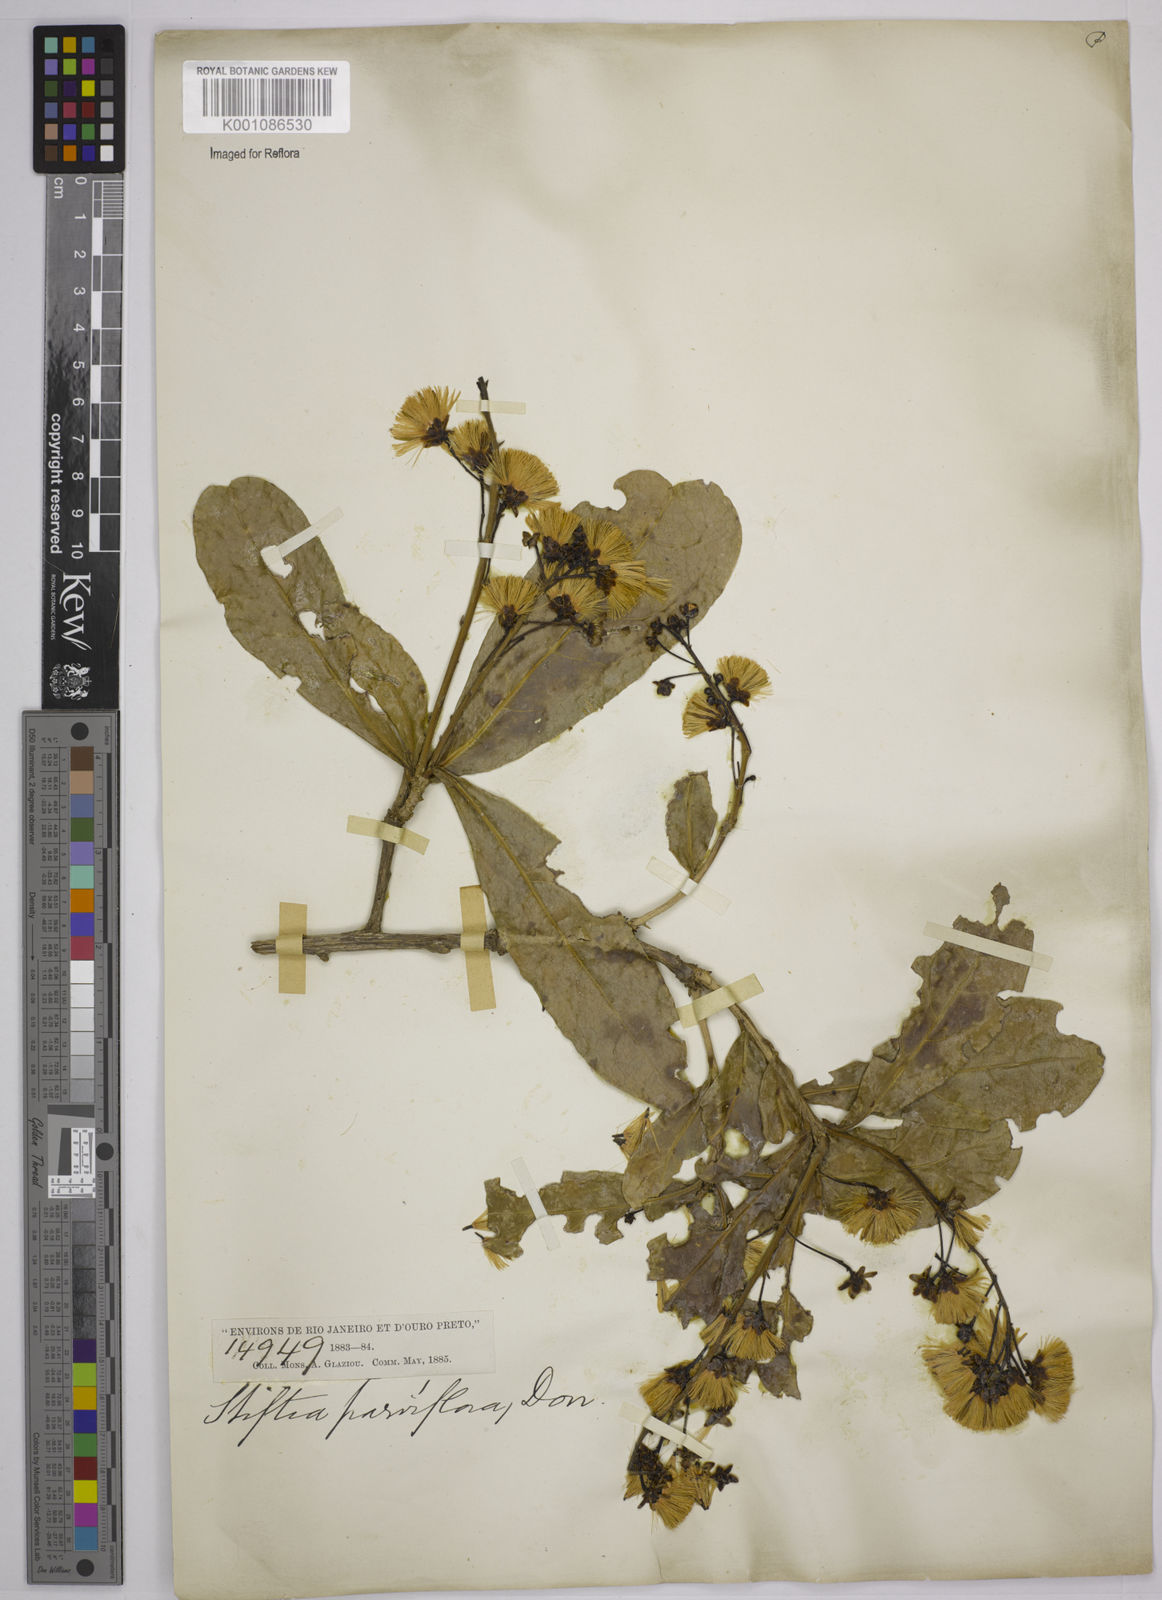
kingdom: Plantae
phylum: Tracheophyta
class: Magnoliopsida
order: Asterales
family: Asteraceae
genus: Stifftia
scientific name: Stifftia parviflora
